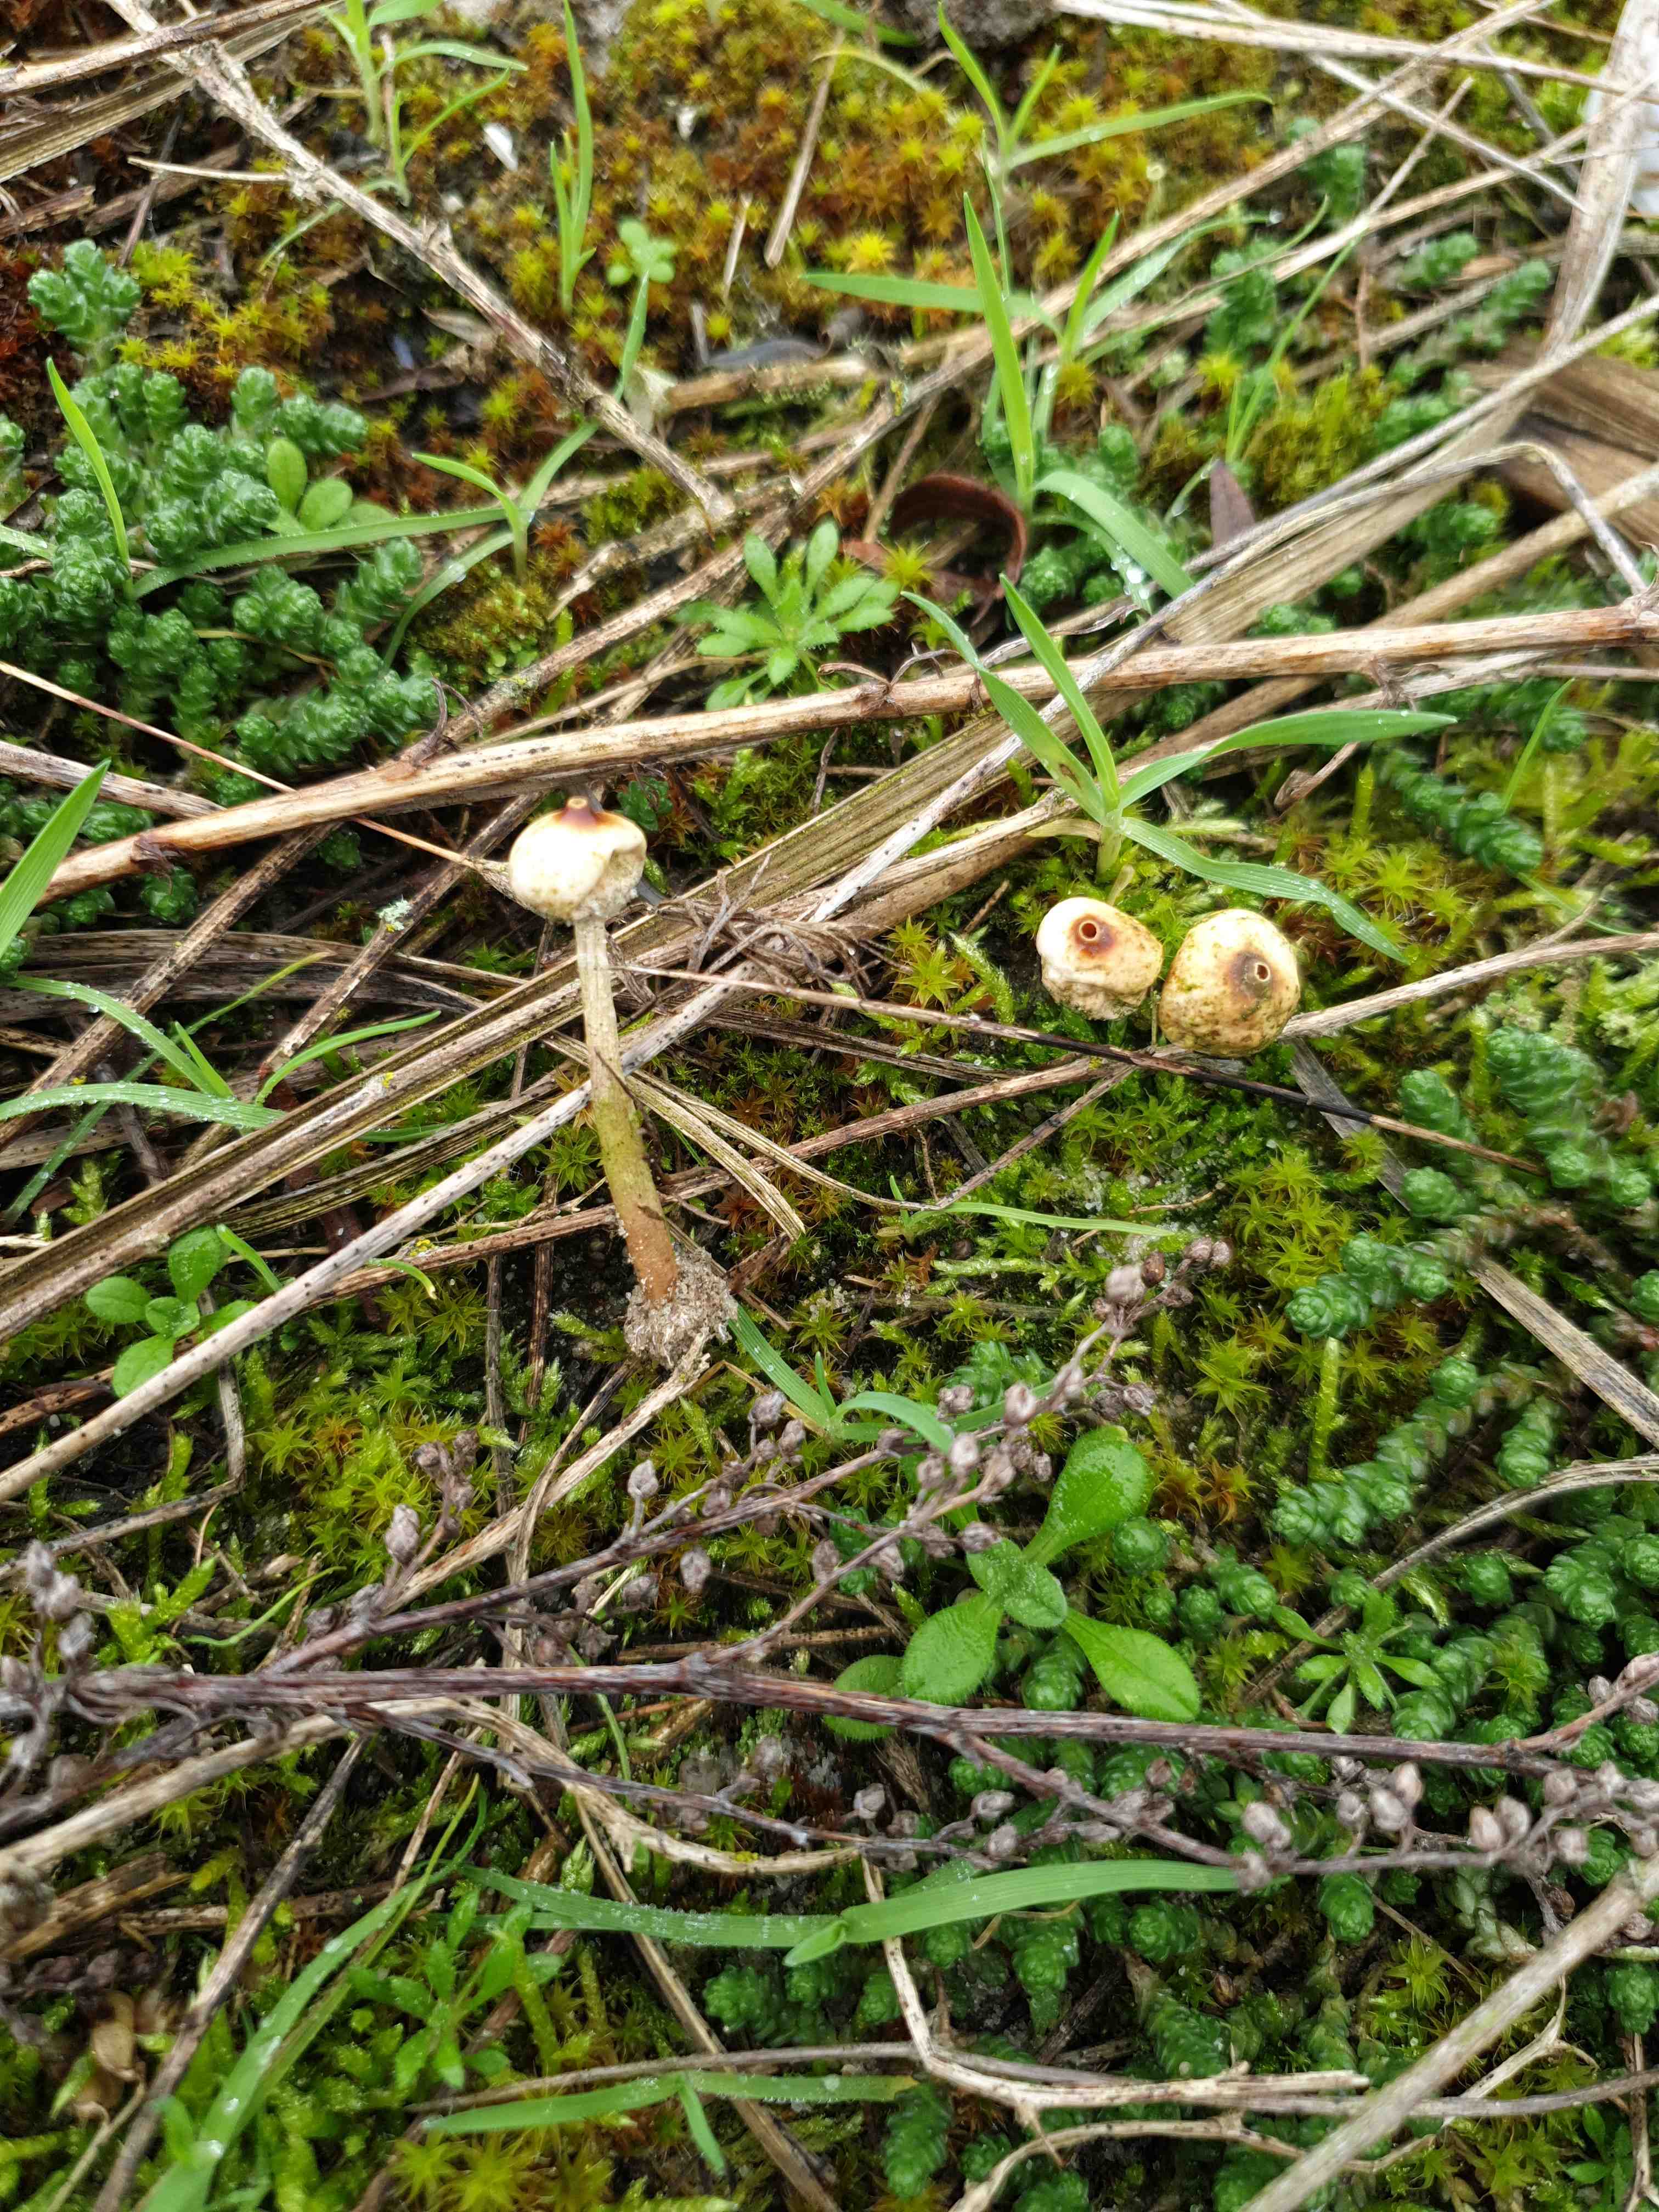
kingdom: Fungi
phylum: Basidiomycota
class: Agaricomycetes
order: Agaricales
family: Agaricaceae
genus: Tulostoma
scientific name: Tulostoma brumale
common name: vinter-stilkbovist
